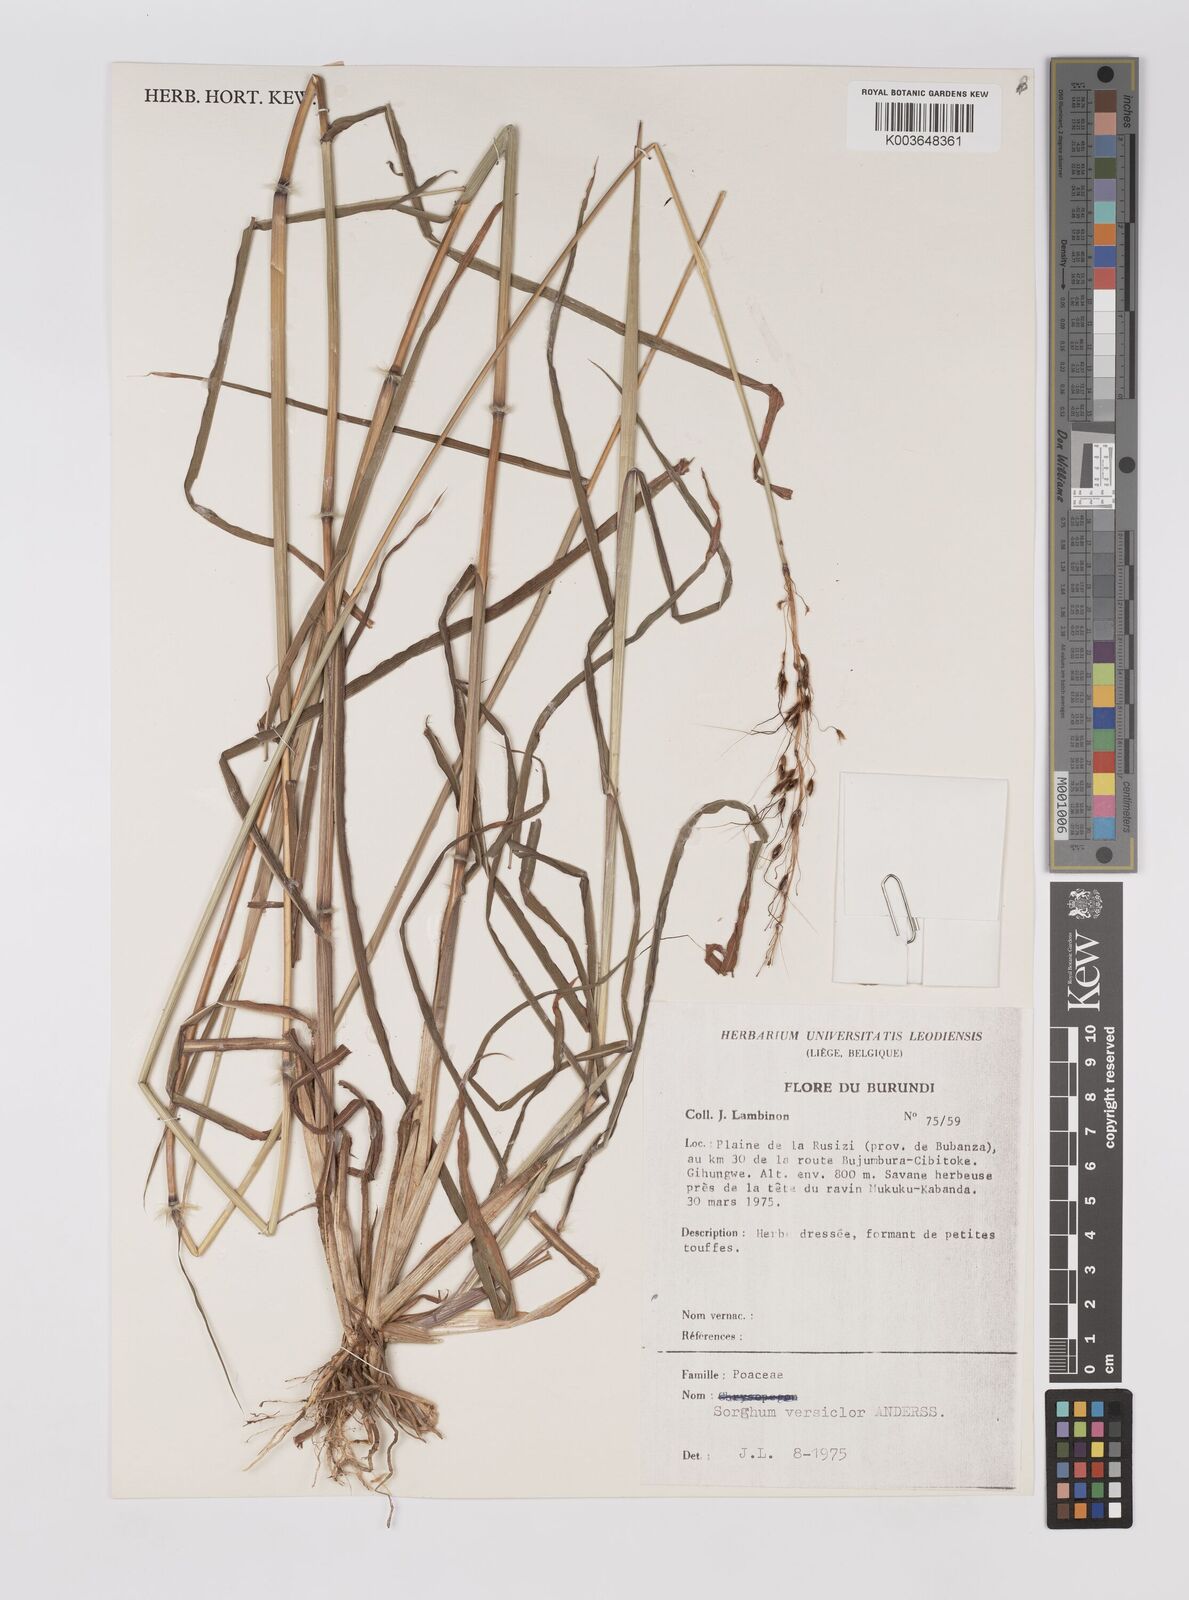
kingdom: Plantae
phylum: Tracheophyta
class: Liliopsida
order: Poales
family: Poaceae
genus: Sarga
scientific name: Sarga versicolor
